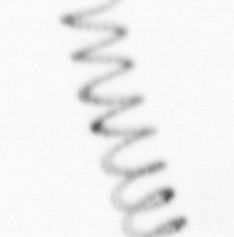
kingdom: Chromista
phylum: Ochrophyta
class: Bacillariophyceae
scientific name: Bacillariophyceae
